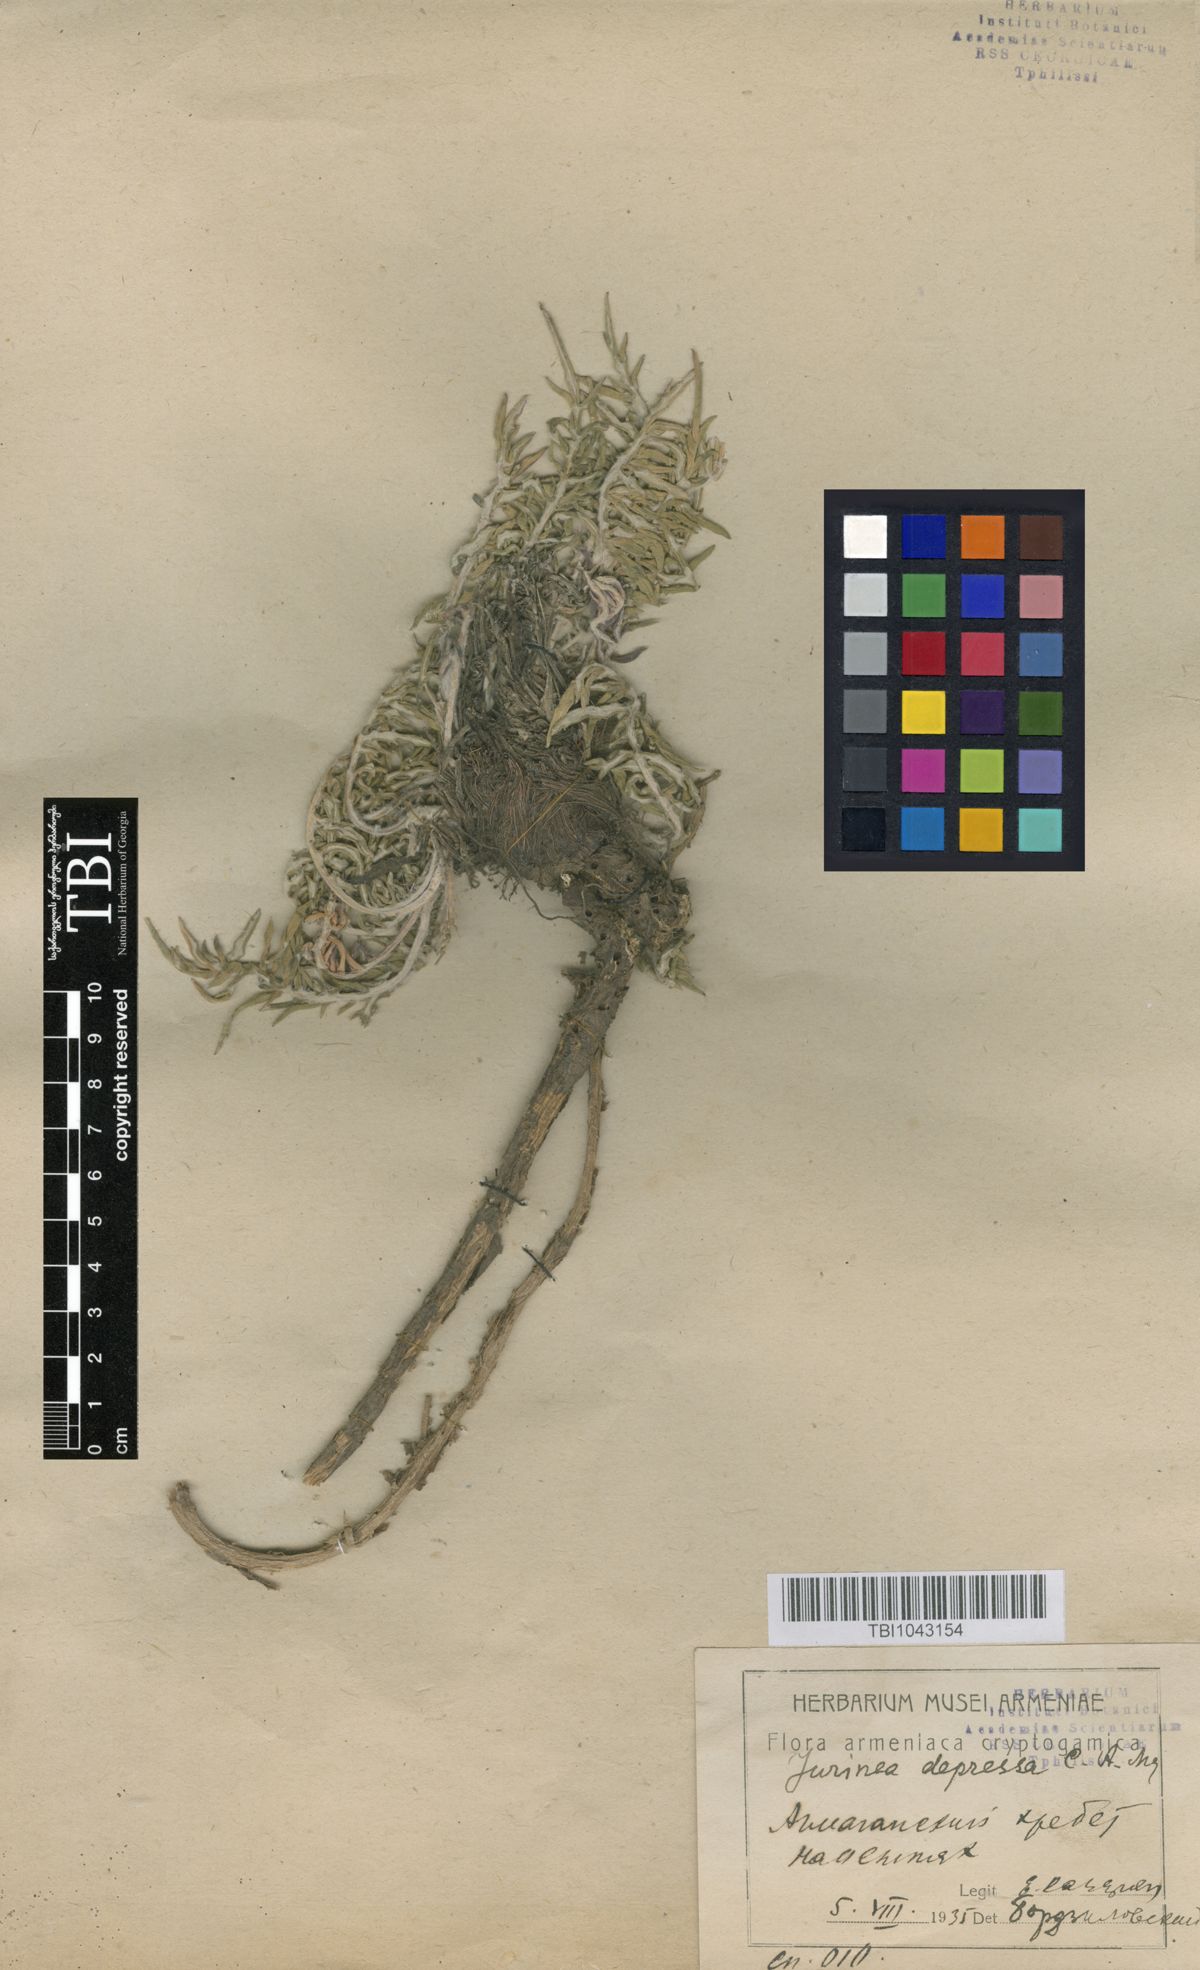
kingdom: Plantae
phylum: Tracheophyta
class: Magnoliopsida
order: Asterales
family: Asteraceae
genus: Jurinea
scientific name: Jurinea moschus
